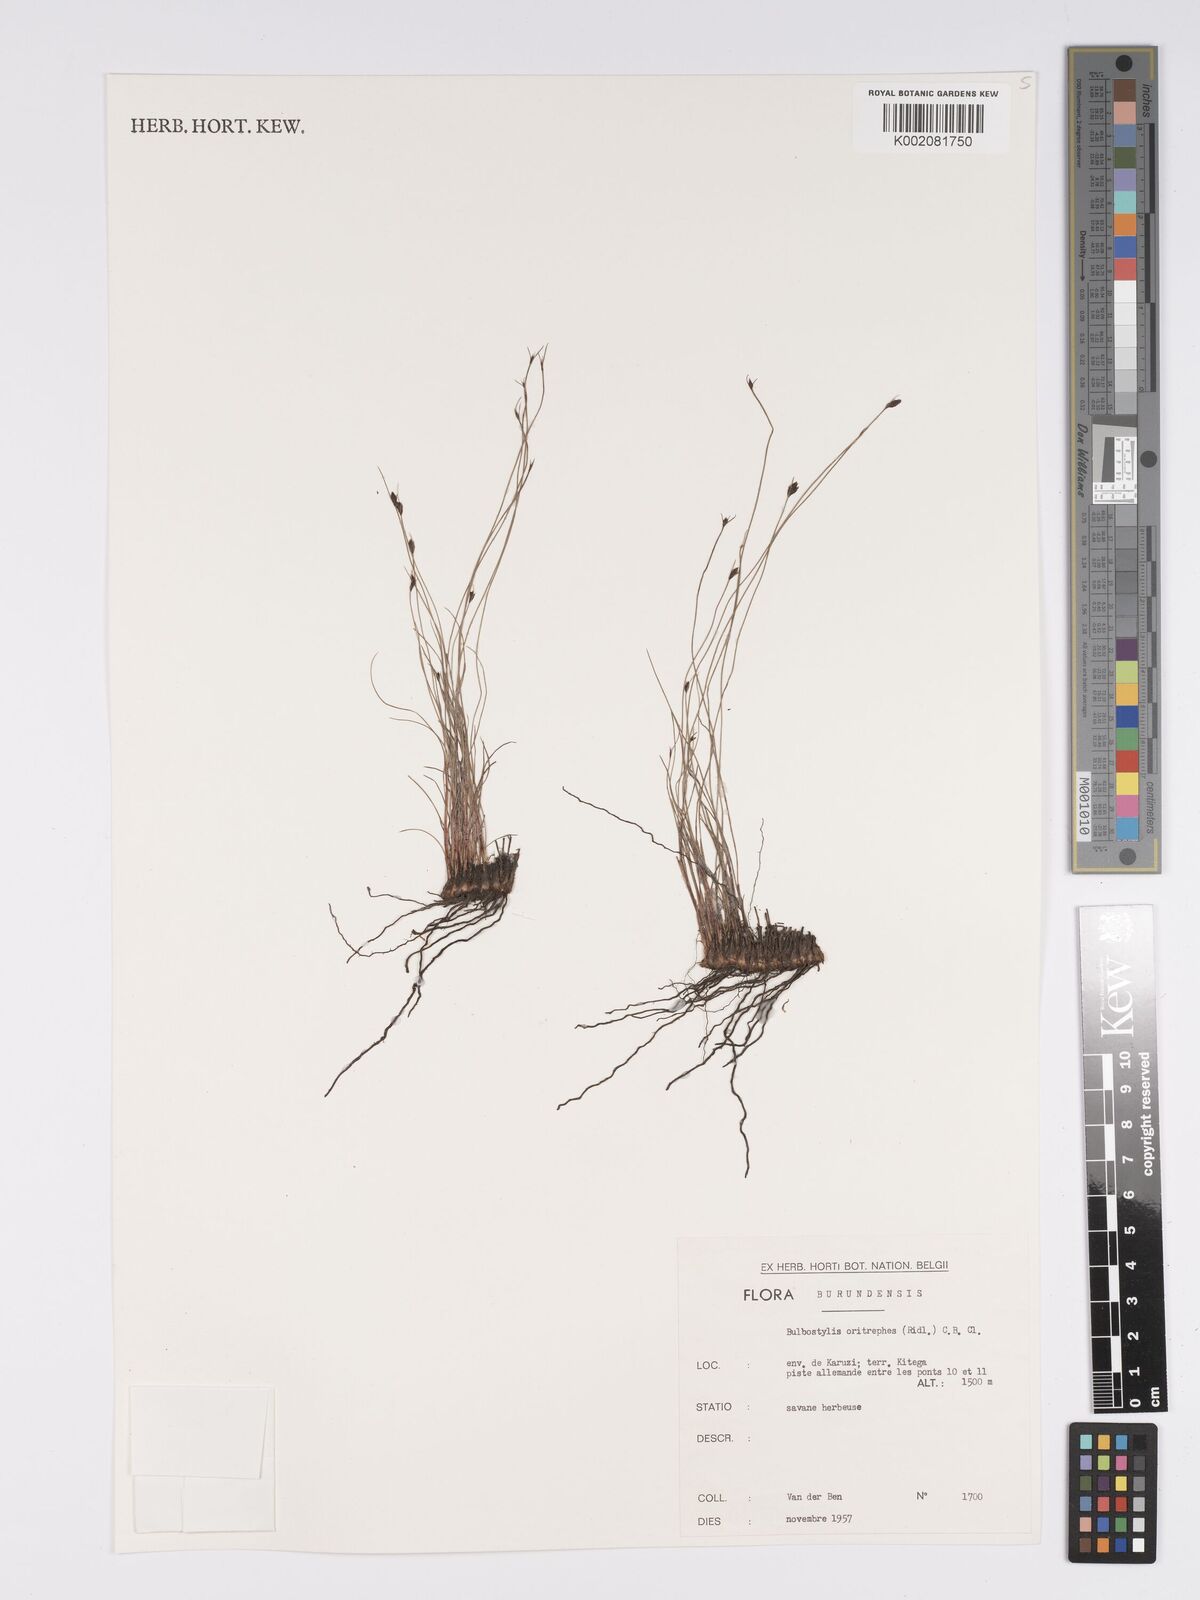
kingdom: Plantae
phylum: Tracheophyta
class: Liliopsida
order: Poales
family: Cyperaceae
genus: Bulbostylis
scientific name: Bulbostylis oritrephes
